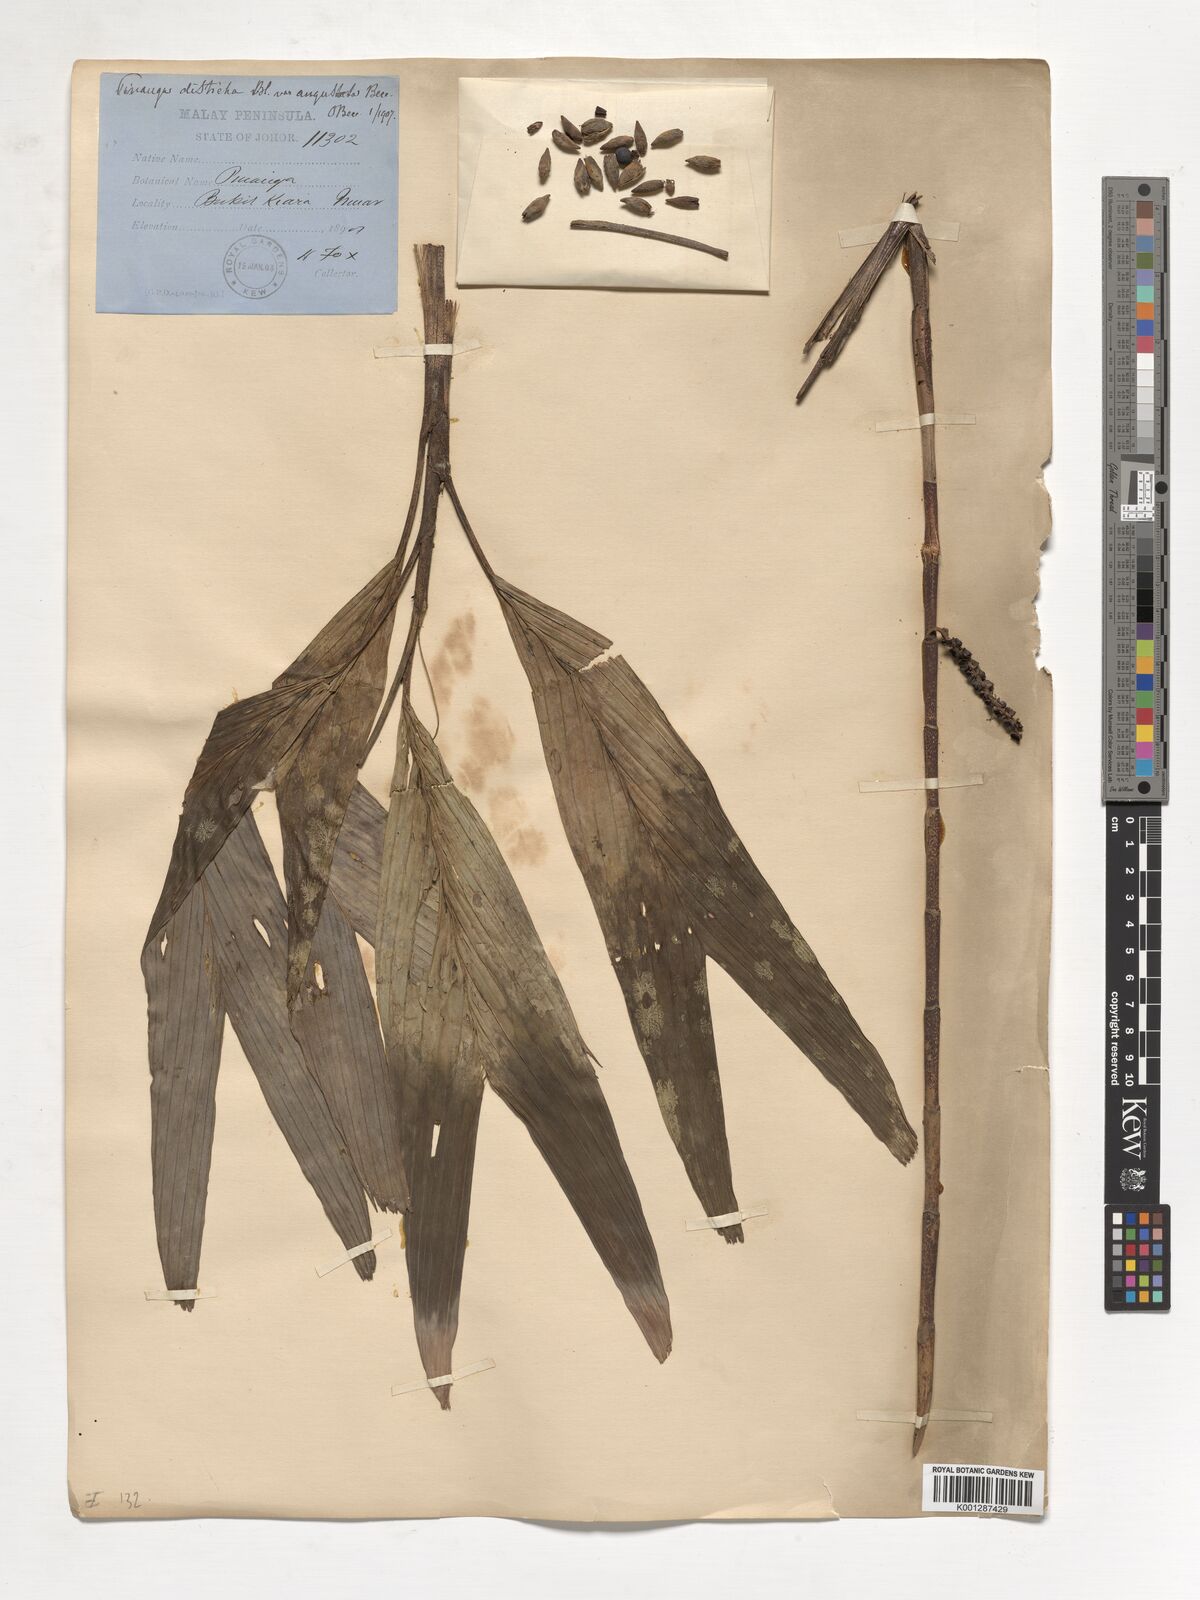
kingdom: Plantae
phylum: Tracheophyta
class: Liliopsida
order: Arecales
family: Arecaceae
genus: Pinanga
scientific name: Pinanga disticha
